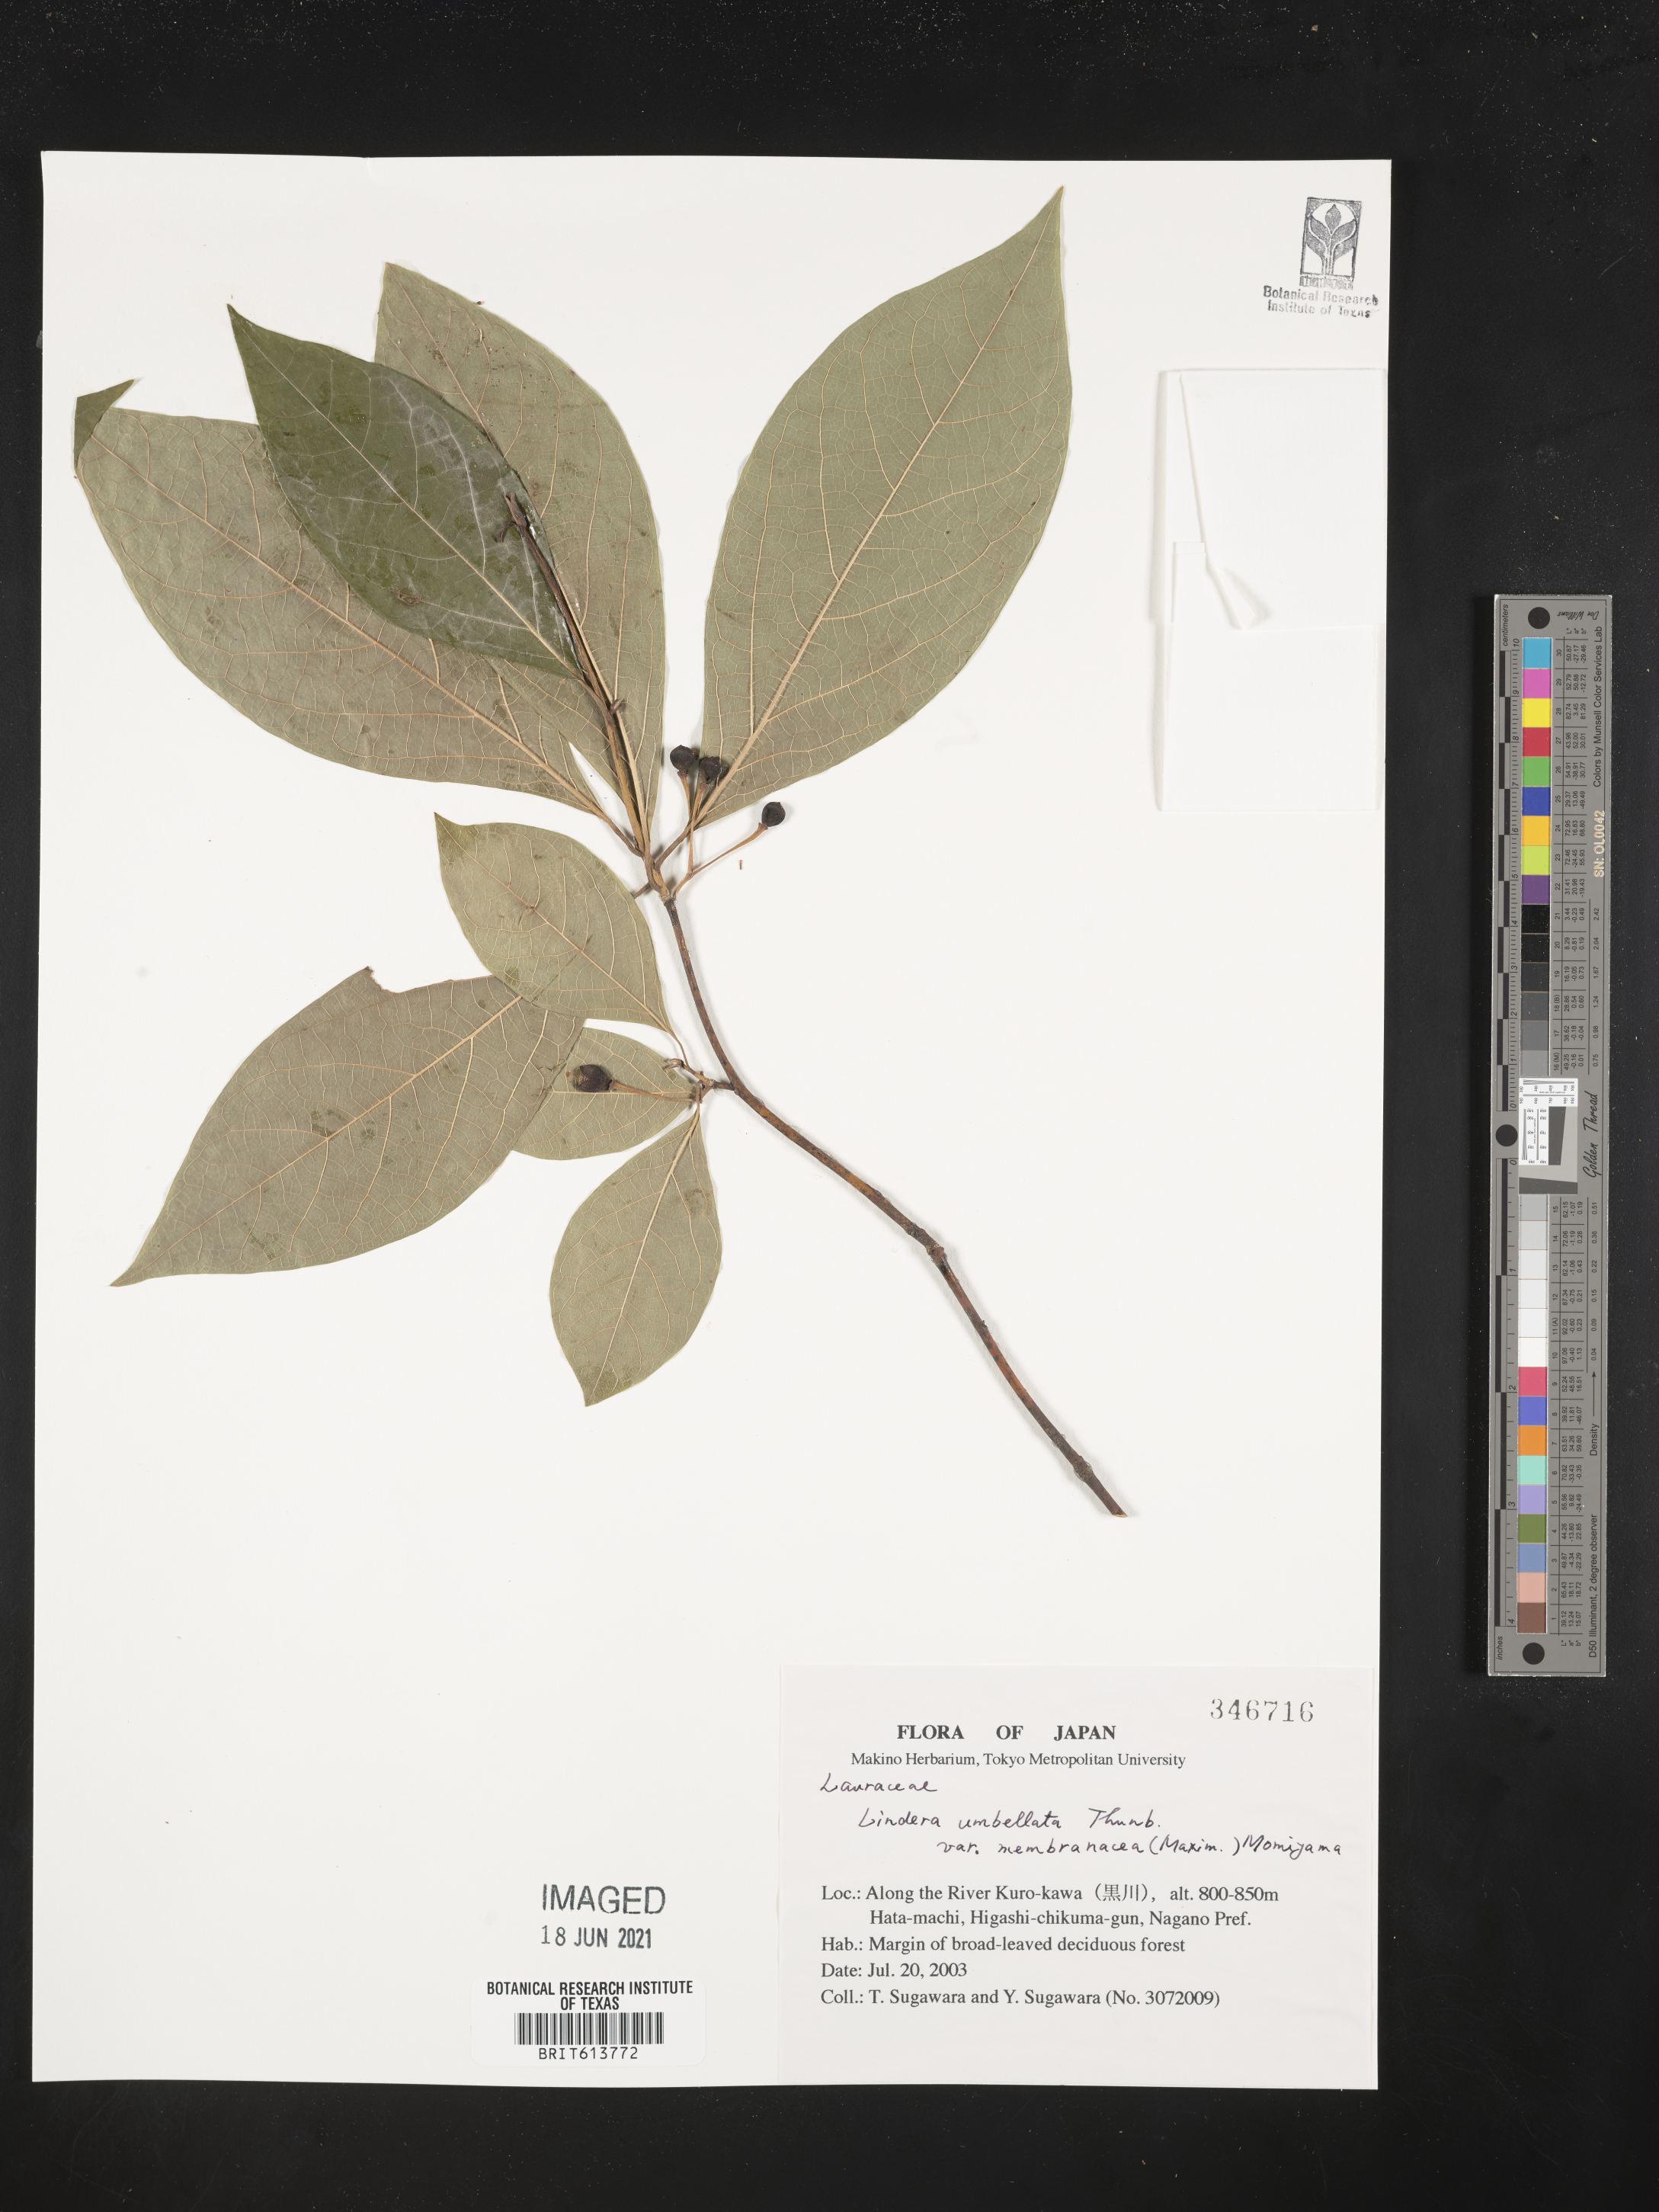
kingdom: Plantae
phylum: Tracheophyta
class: Magnoliopsida
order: Laurales
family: Lauraceae
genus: Lindera
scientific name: Lindera umbellata
